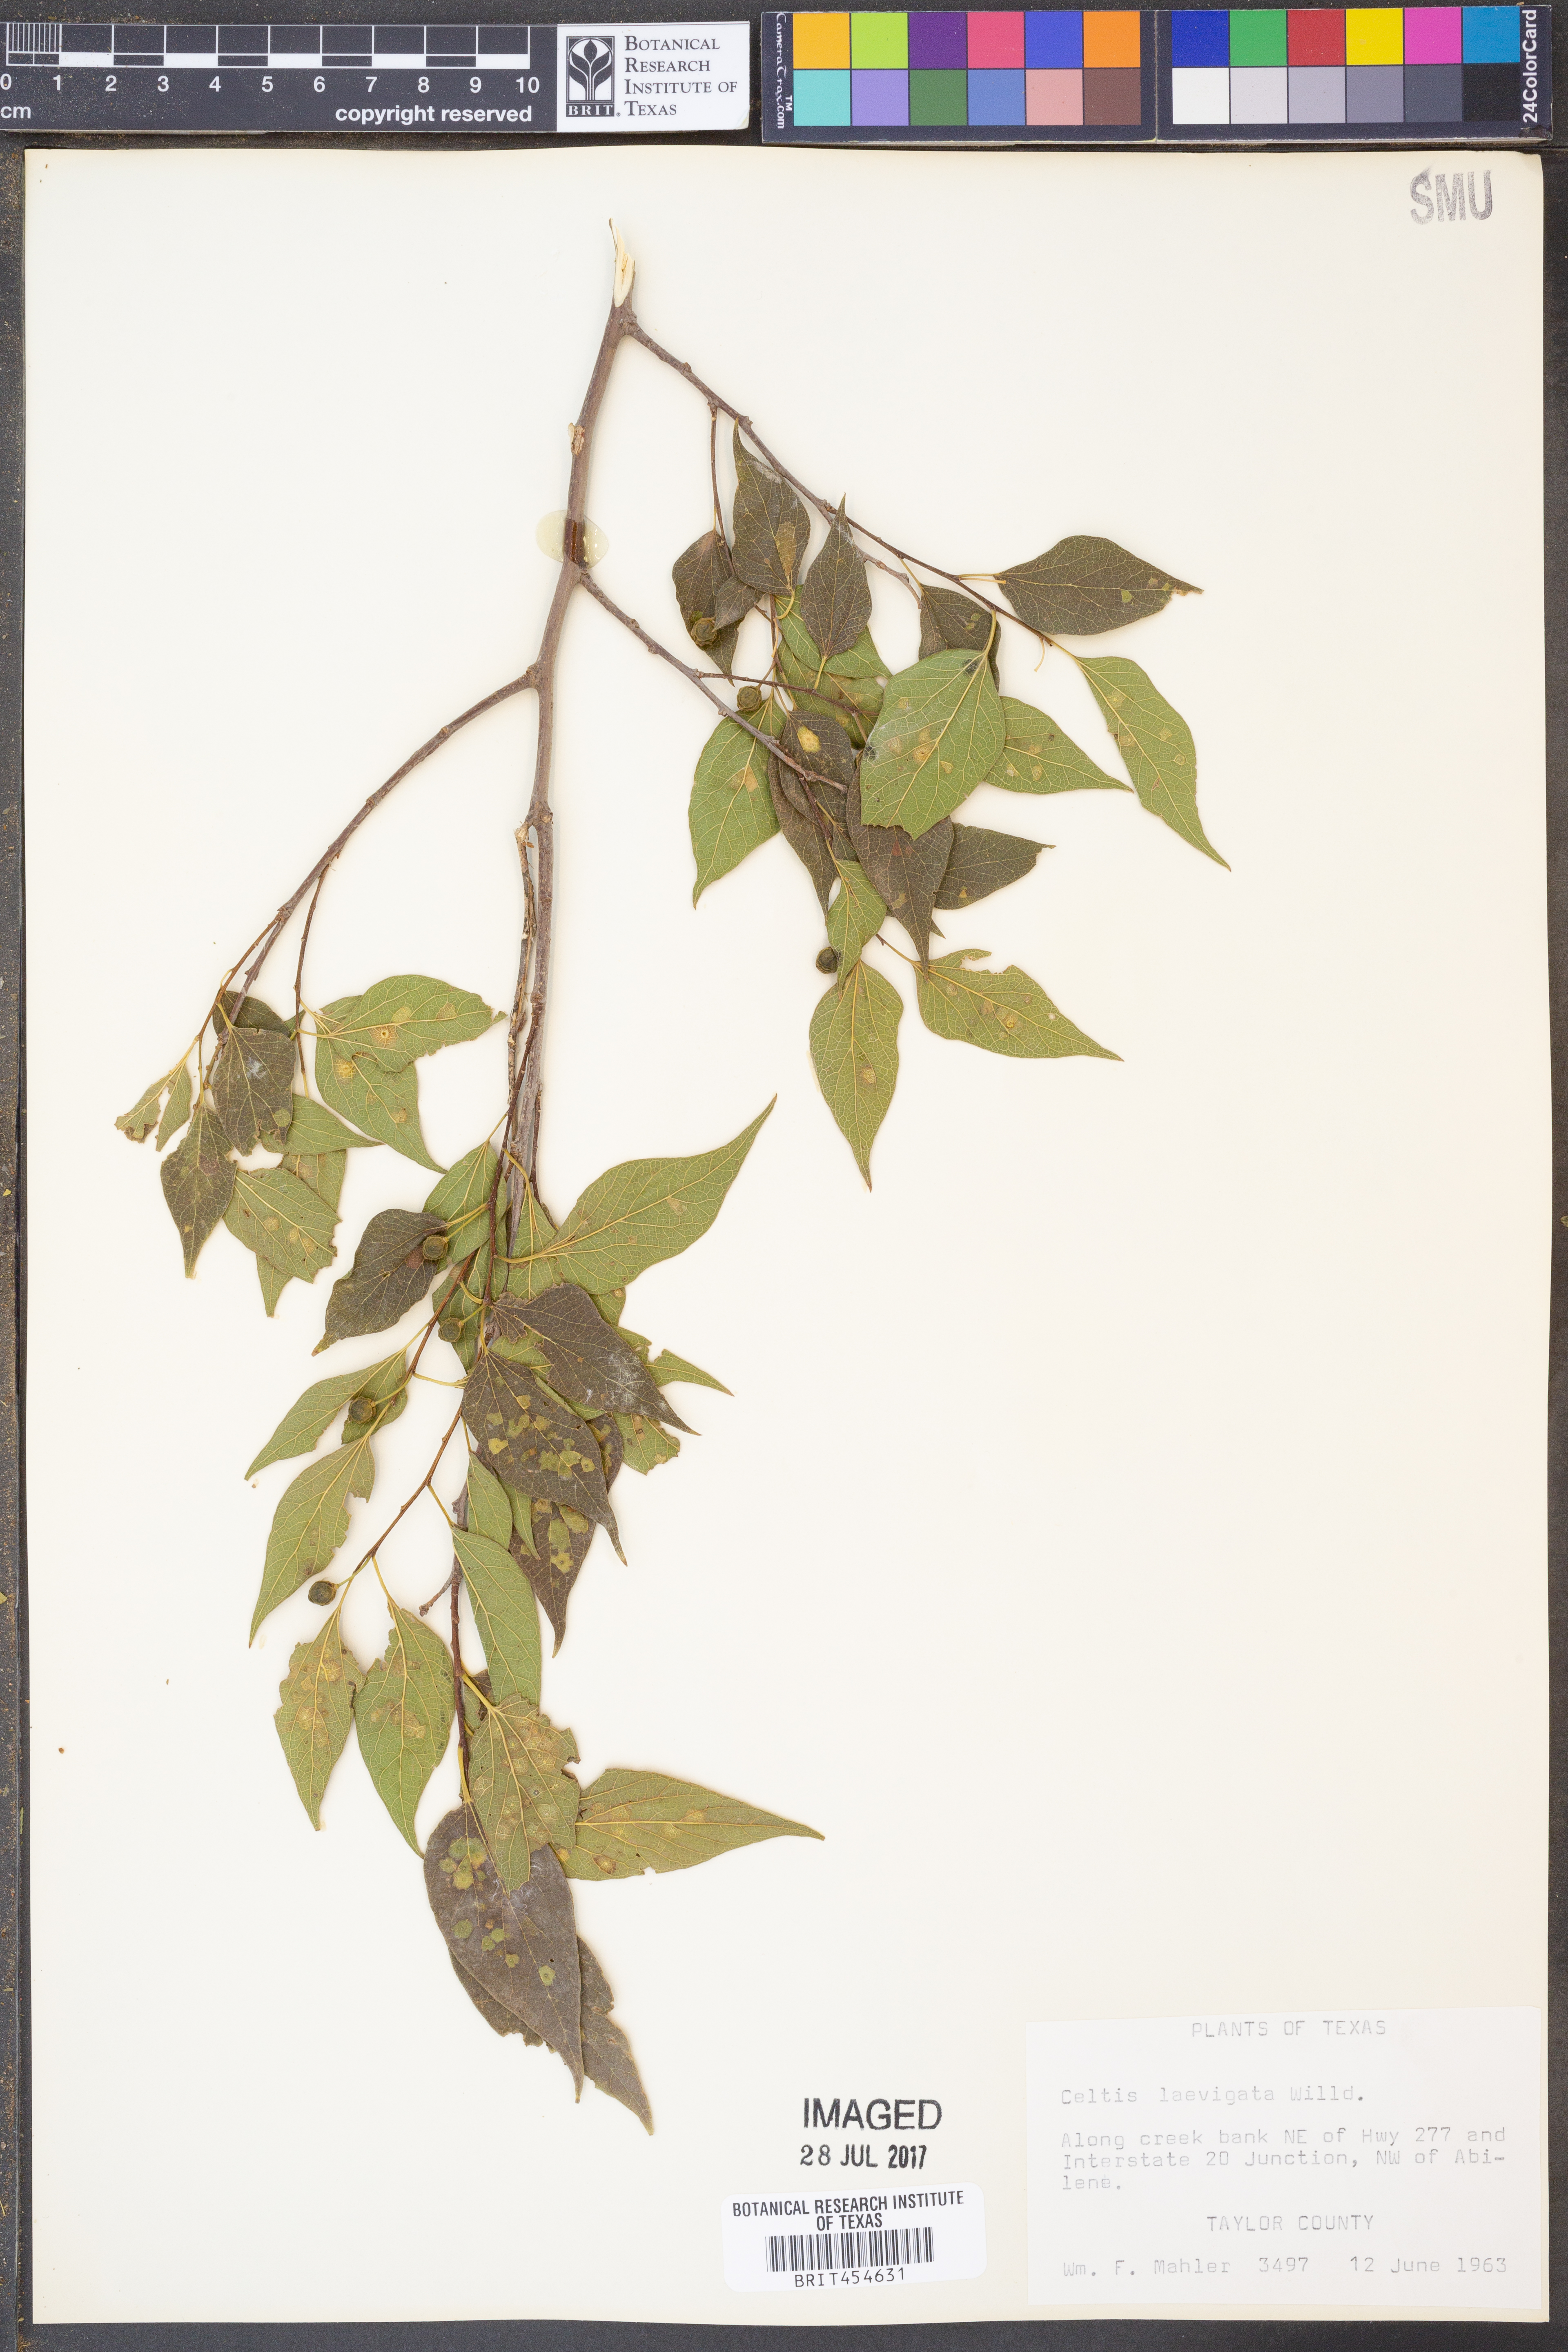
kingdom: Plantae
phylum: Tracheophyta
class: Magnoliopsida
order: Rosales
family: Cannabaceae
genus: Celtis
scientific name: Celtis laevigata
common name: Sugarberry
